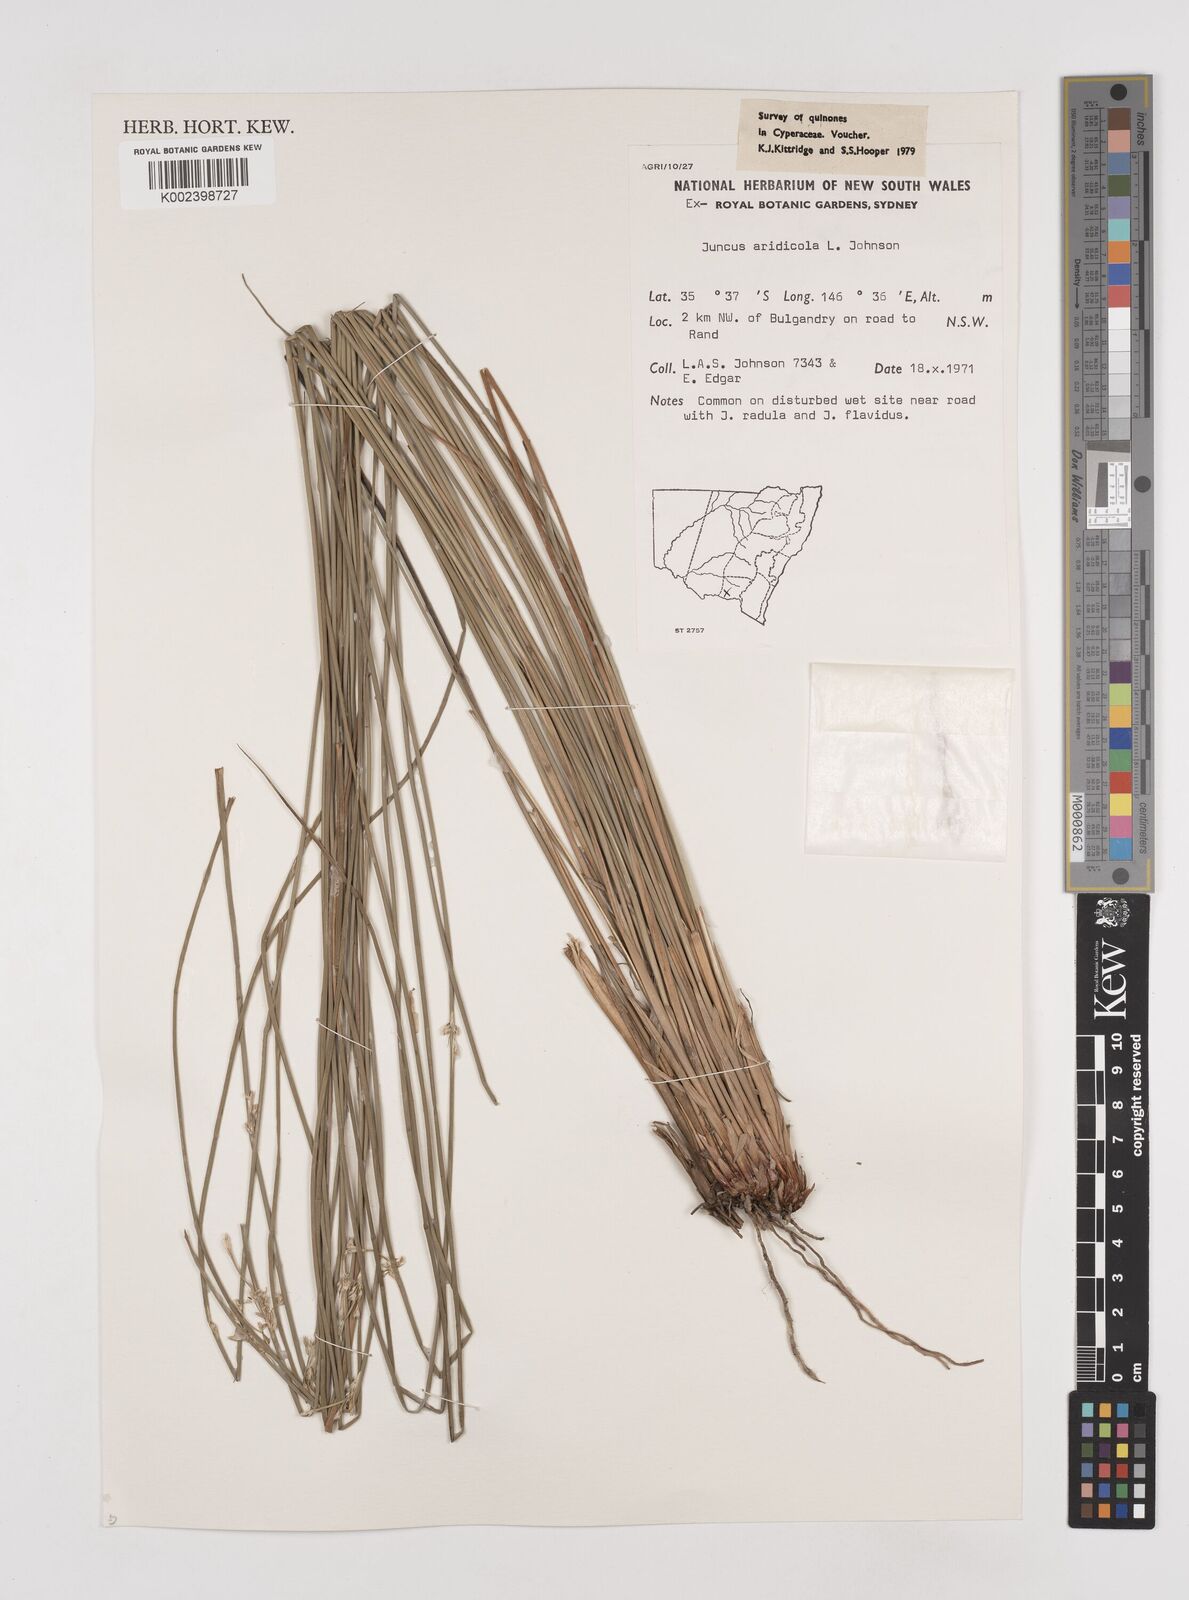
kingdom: Plantae
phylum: Tracheophyta
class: Liliopsida
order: Poales
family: Juncaceae
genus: Juncus
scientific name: Juncus aridicola
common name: Tussock rush
